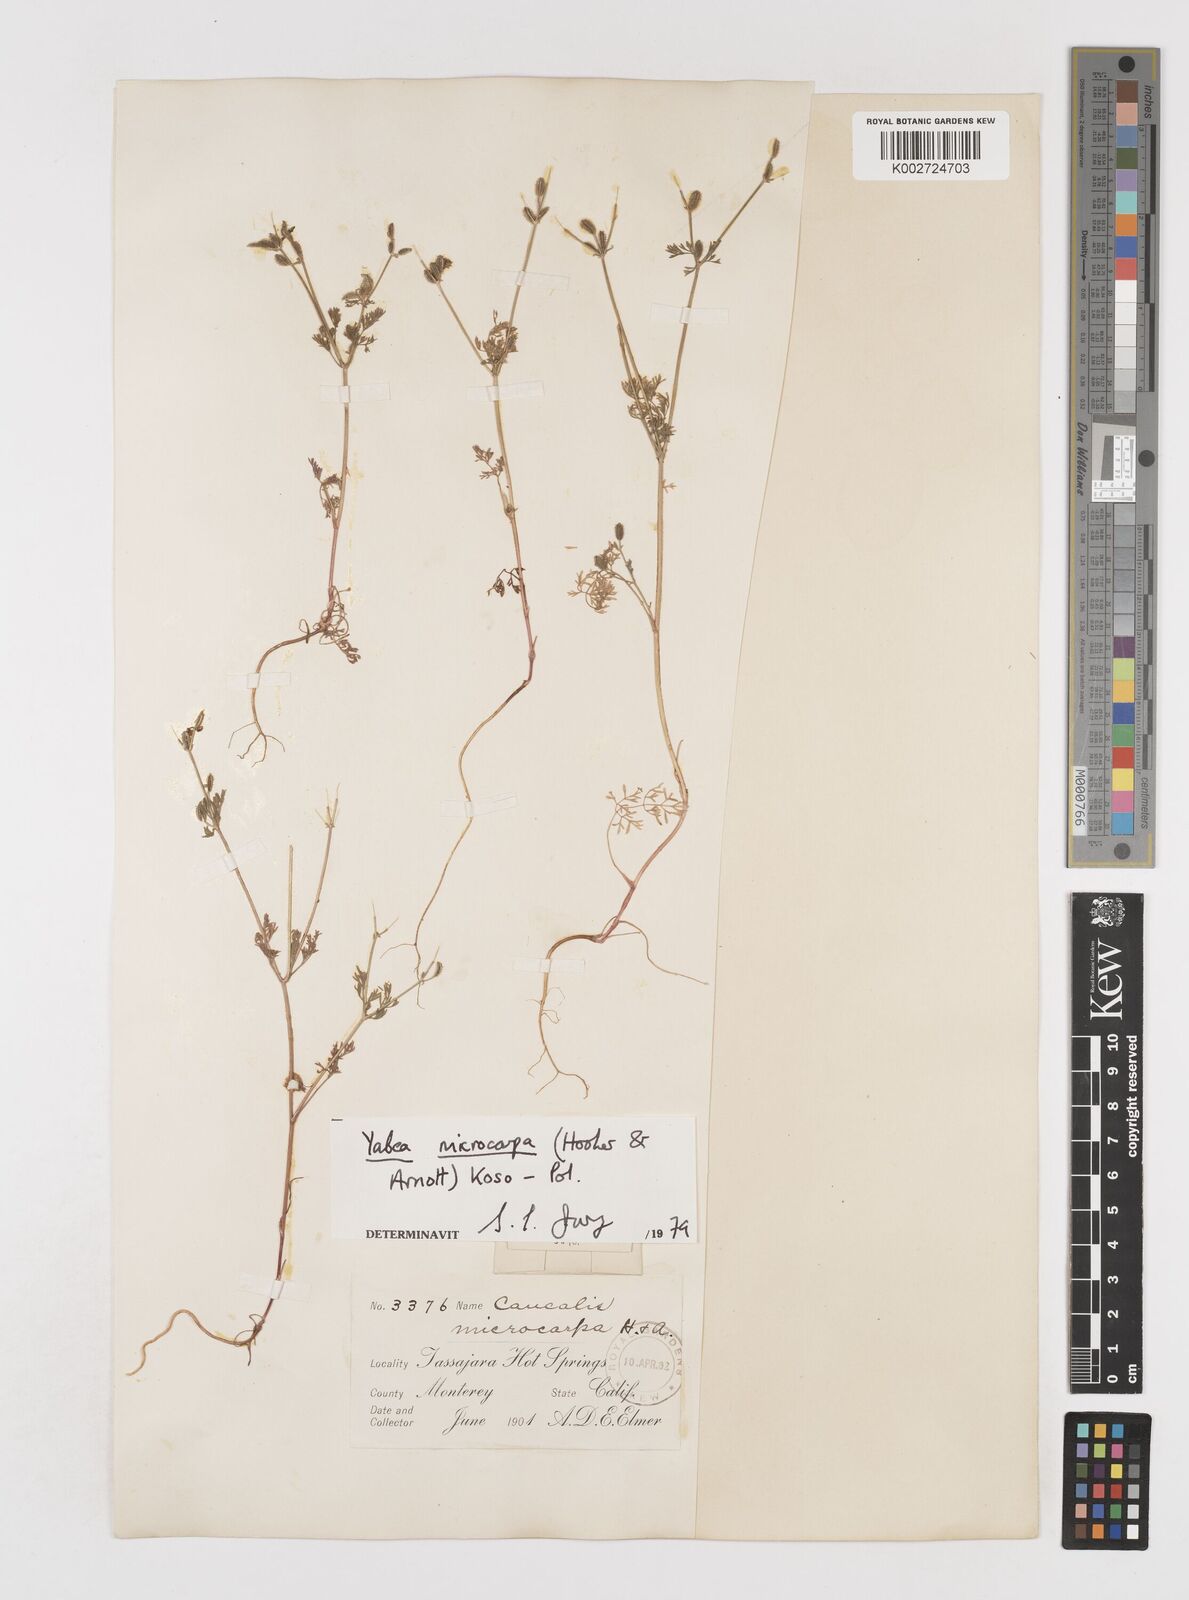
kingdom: Plantae
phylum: Tracheophyta
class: Magnoliopsida
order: Apiales
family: Apiaceae
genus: Yabea
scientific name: Yabea microcarpa
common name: False carrot
